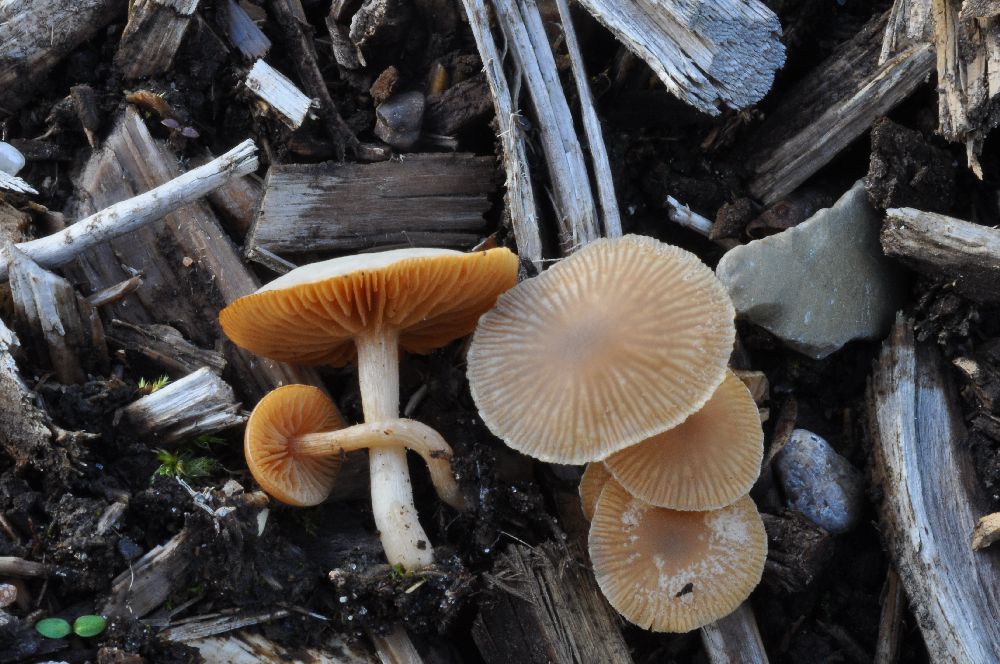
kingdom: Fungi
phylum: Basidiomycota
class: Agaricomycetes
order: Agaricales
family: Tubariaceae
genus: Tubaria
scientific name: Tubaria furfuracea
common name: kliddet fnughat
